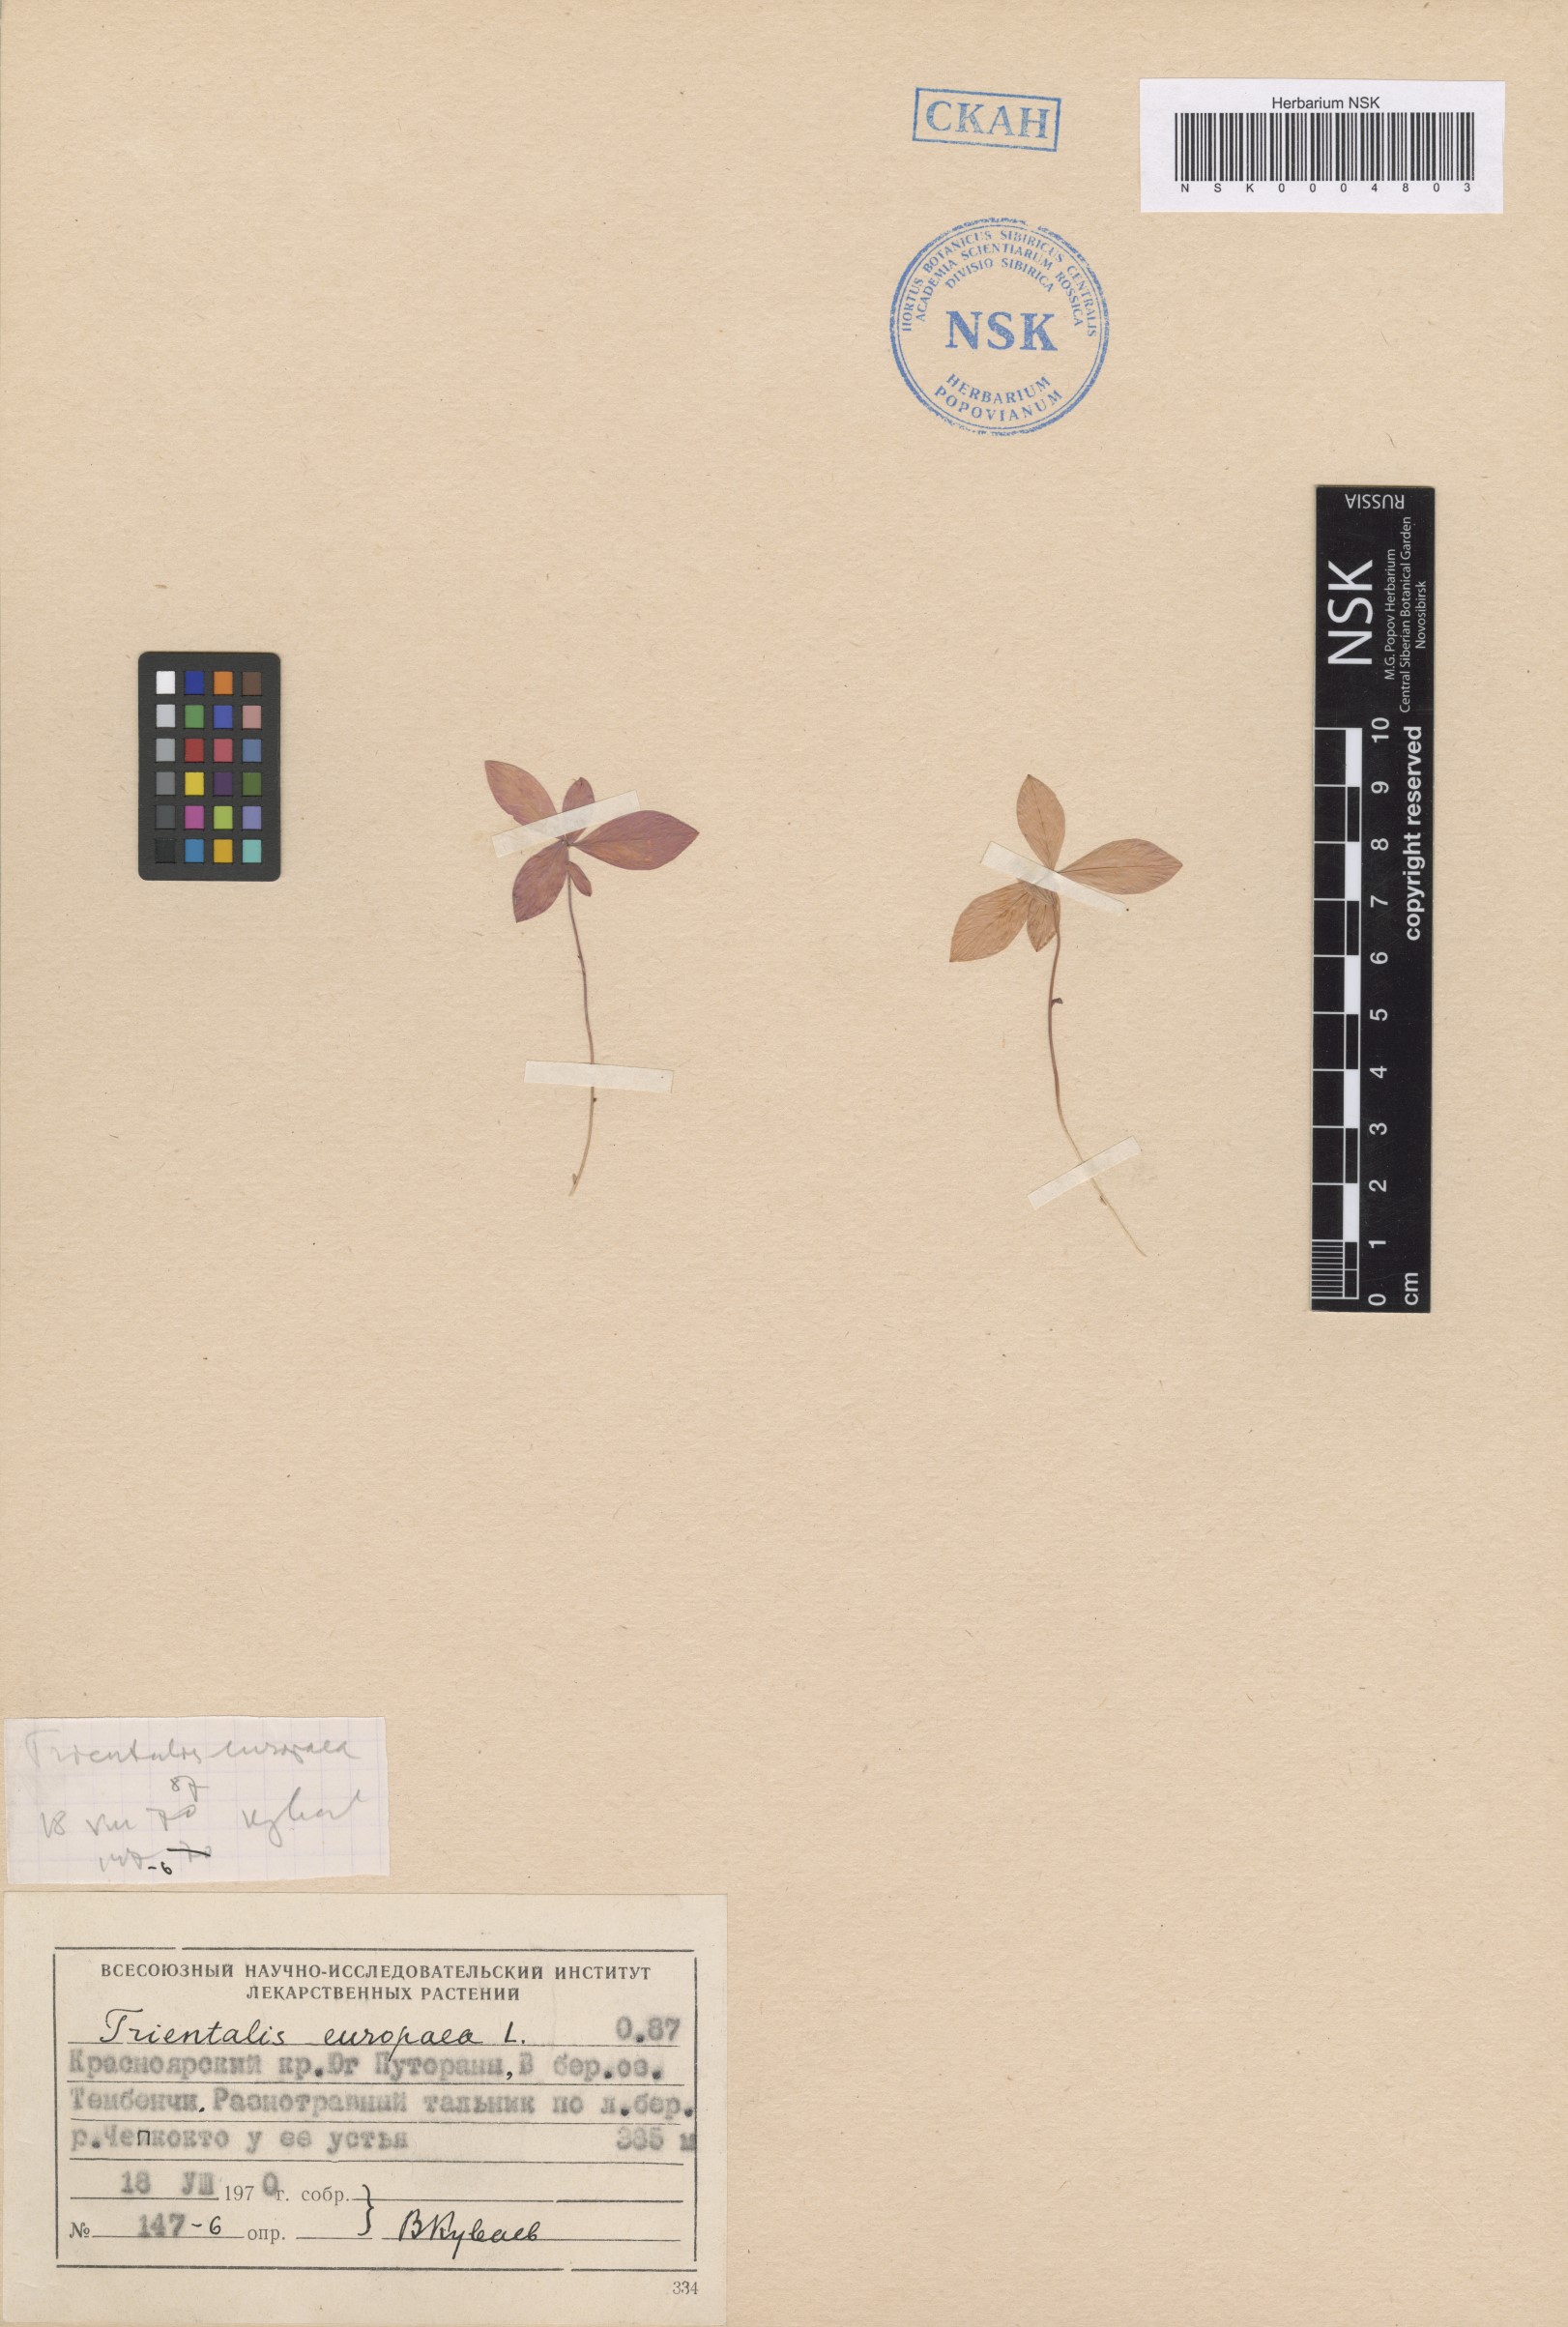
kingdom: Plantae
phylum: Tracheophyta
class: Magnoliopsida
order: Ericales
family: Primulaceae
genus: Lysimachia
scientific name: Lysimachia europaea
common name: Arctic starflower
